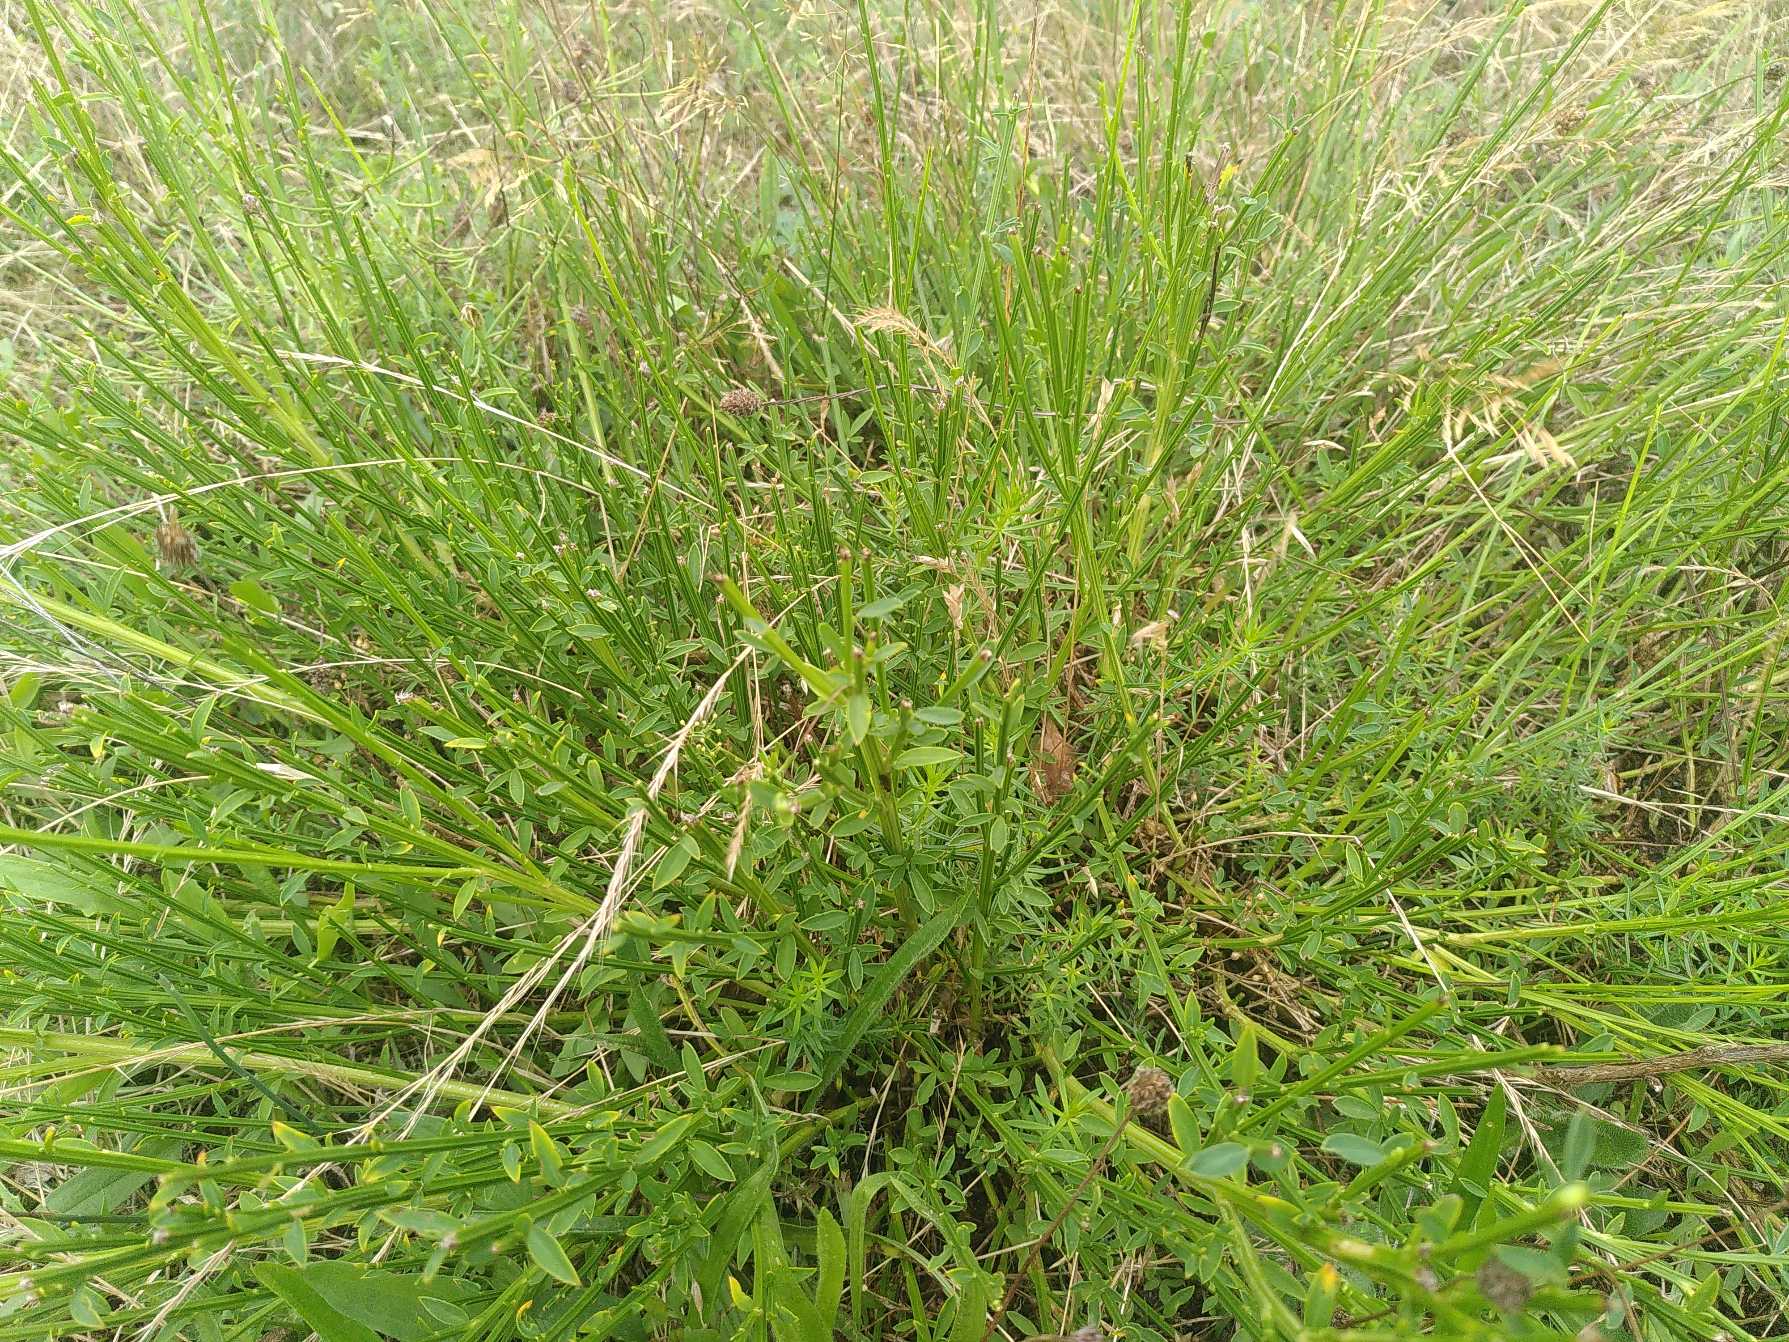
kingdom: Plantae
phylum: Tracheophyta
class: Magnoliopsida
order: Fabales
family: Fabaceae
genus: Cytisus
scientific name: Cytisus scoparius
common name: Almindelig gyvel
